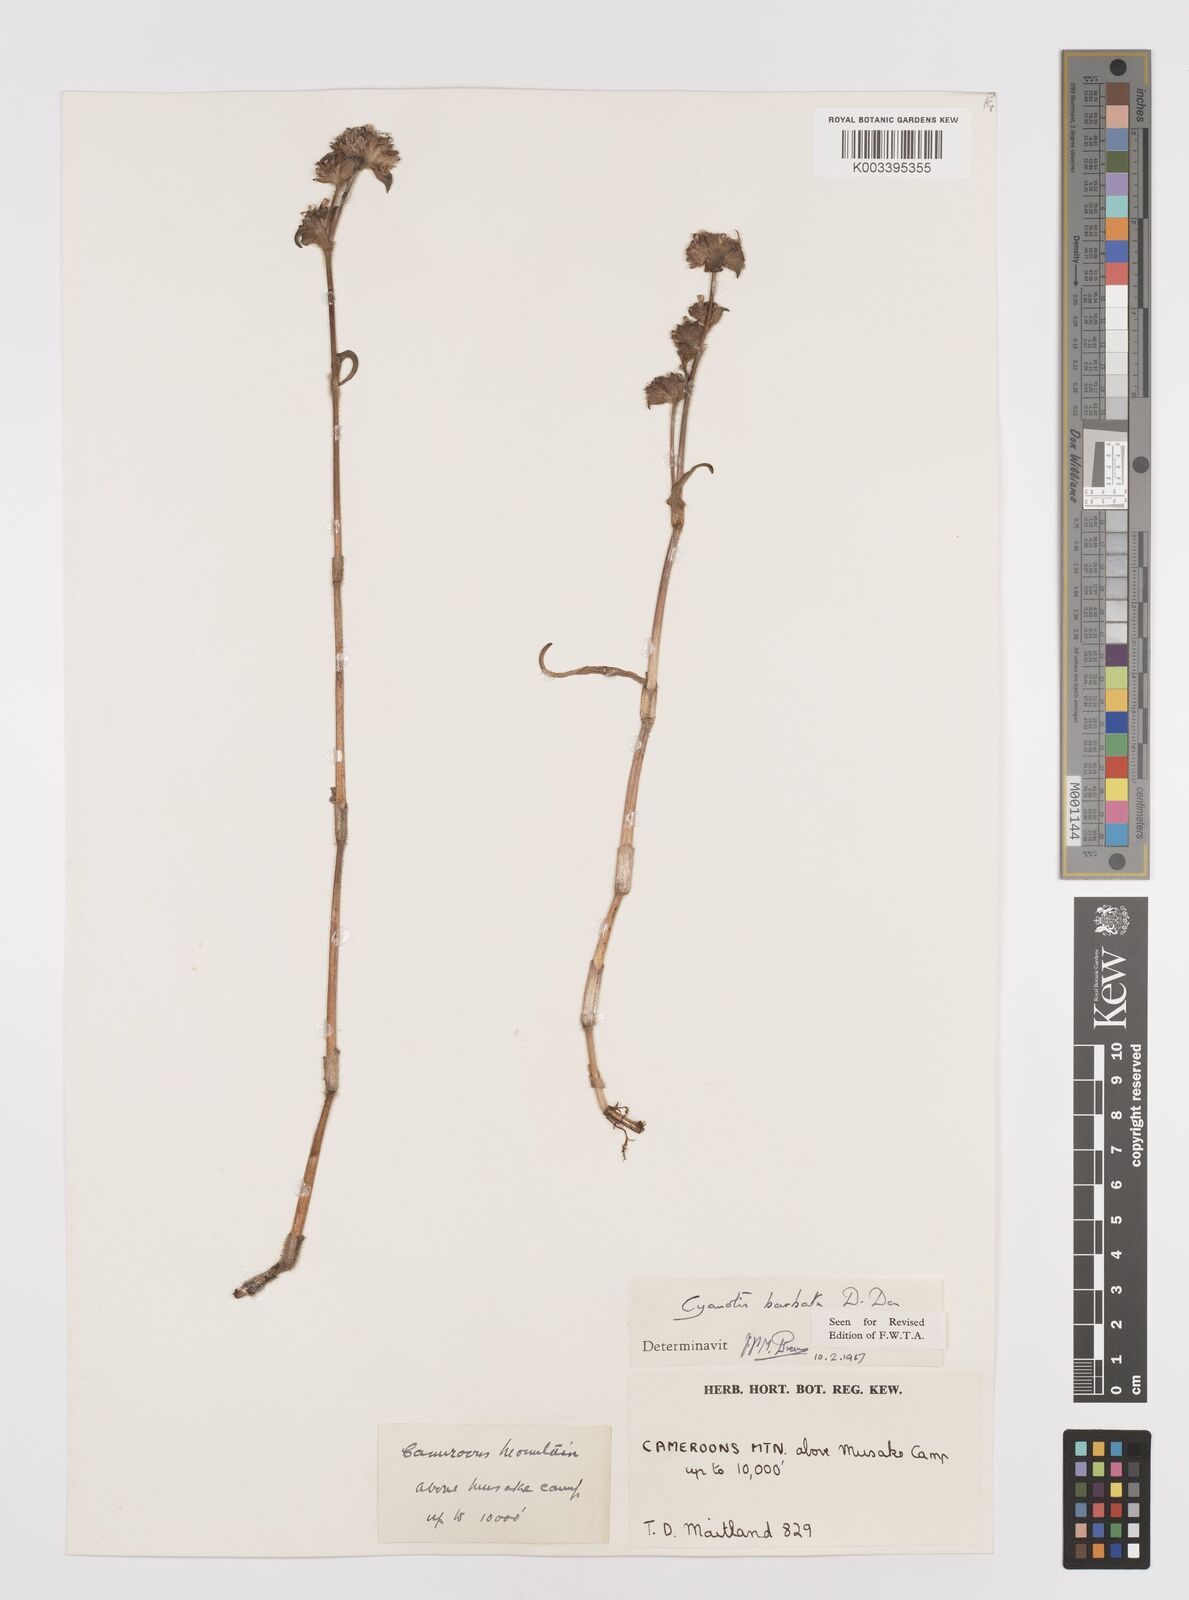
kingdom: Plantae
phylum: Tracheophyta
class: Liliopsida
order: Commelinales
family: Commelinaceae
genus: Cyanotis
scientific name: Cyanotis vaga
